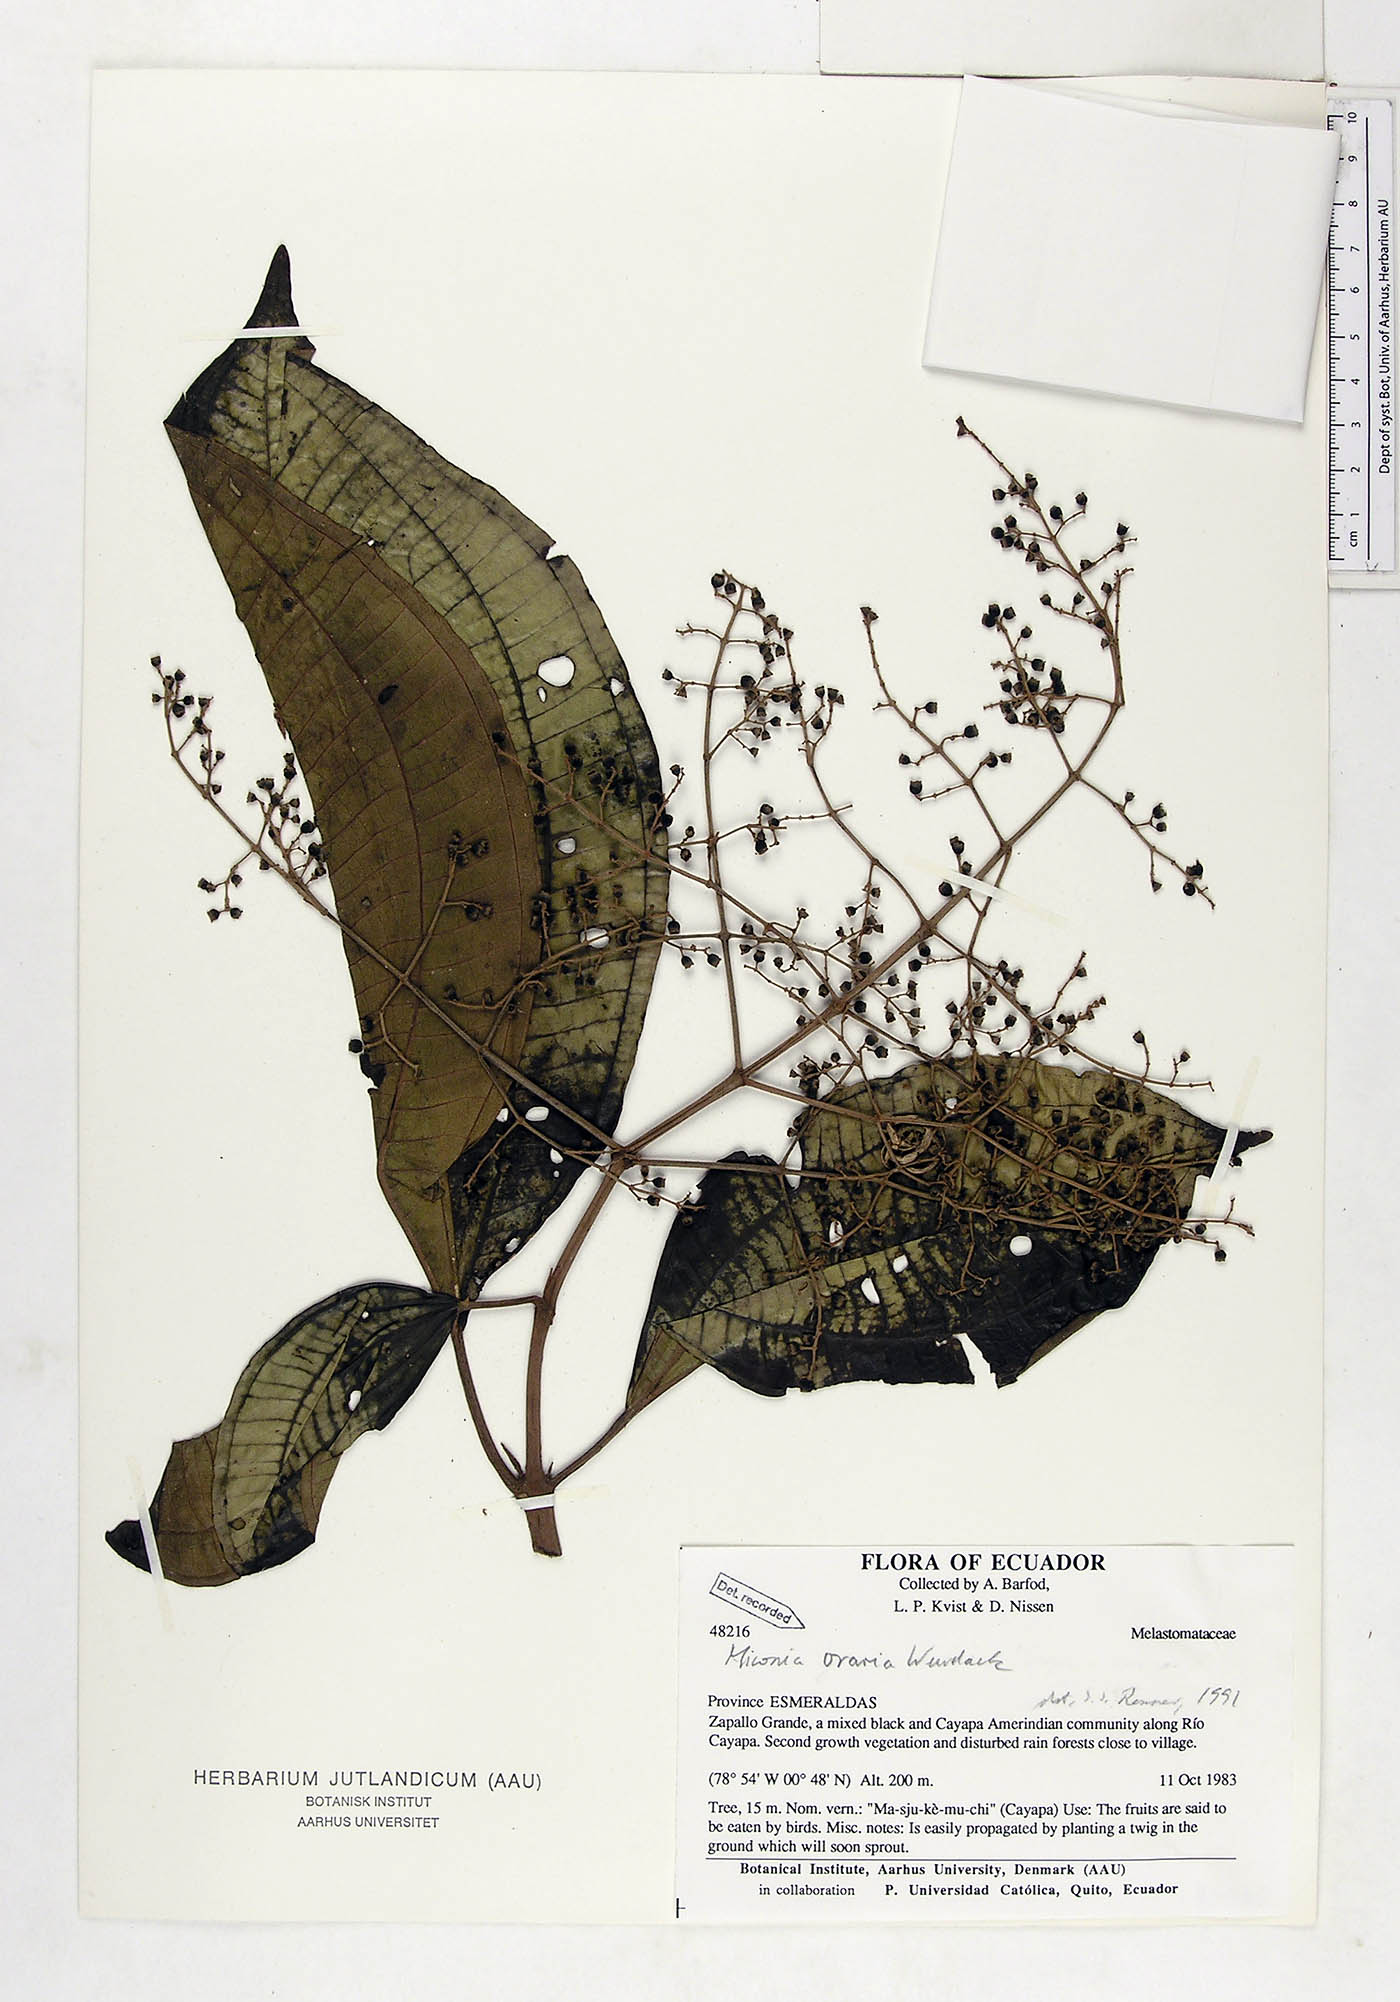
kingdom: Plantae
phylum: Tracheophyta
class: Magnoliopsida
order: Myrtales
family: Melastomataceae
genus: Miconia
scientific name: Miconia oraria
